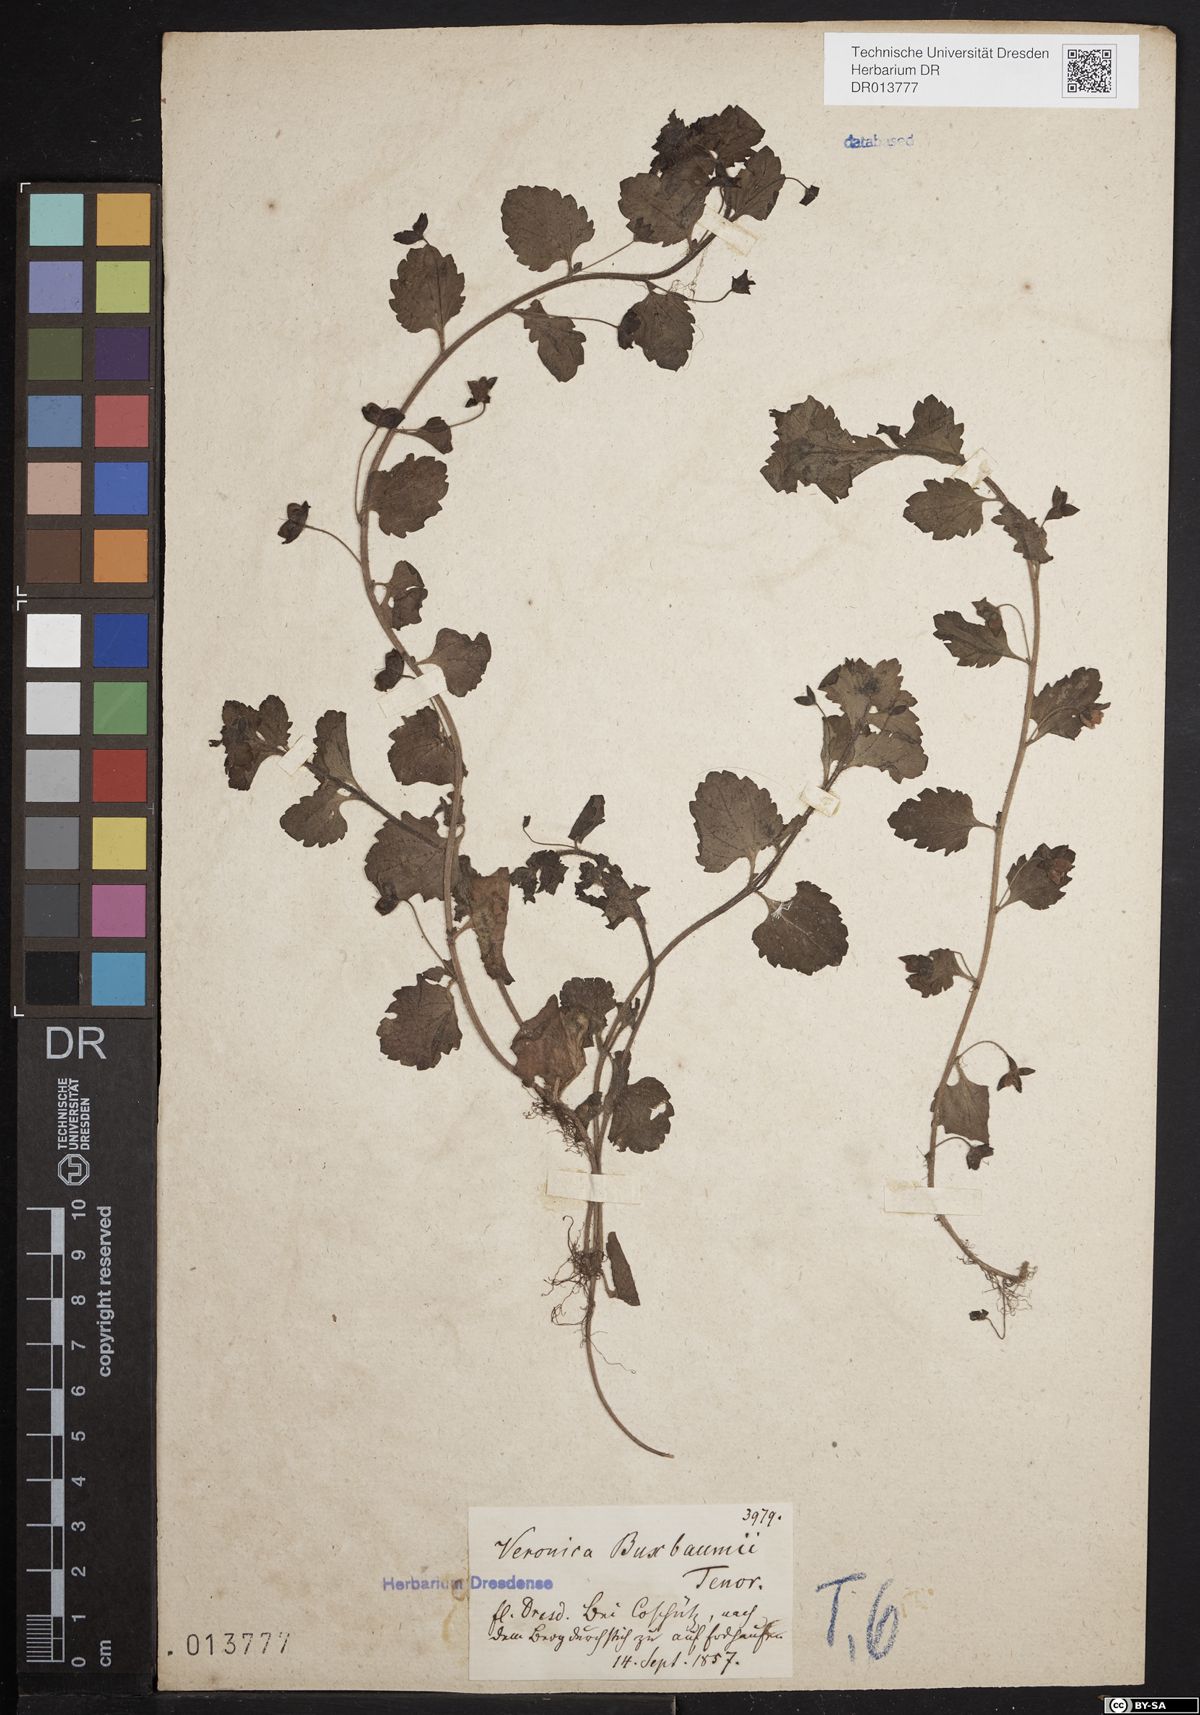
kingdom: Plantae
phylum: Tracheophyta
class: Magnoliopsida
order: Lamiales
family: Plantaginaceae
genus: Veronica
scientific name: Veronica persica
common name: Common field-speedwell
